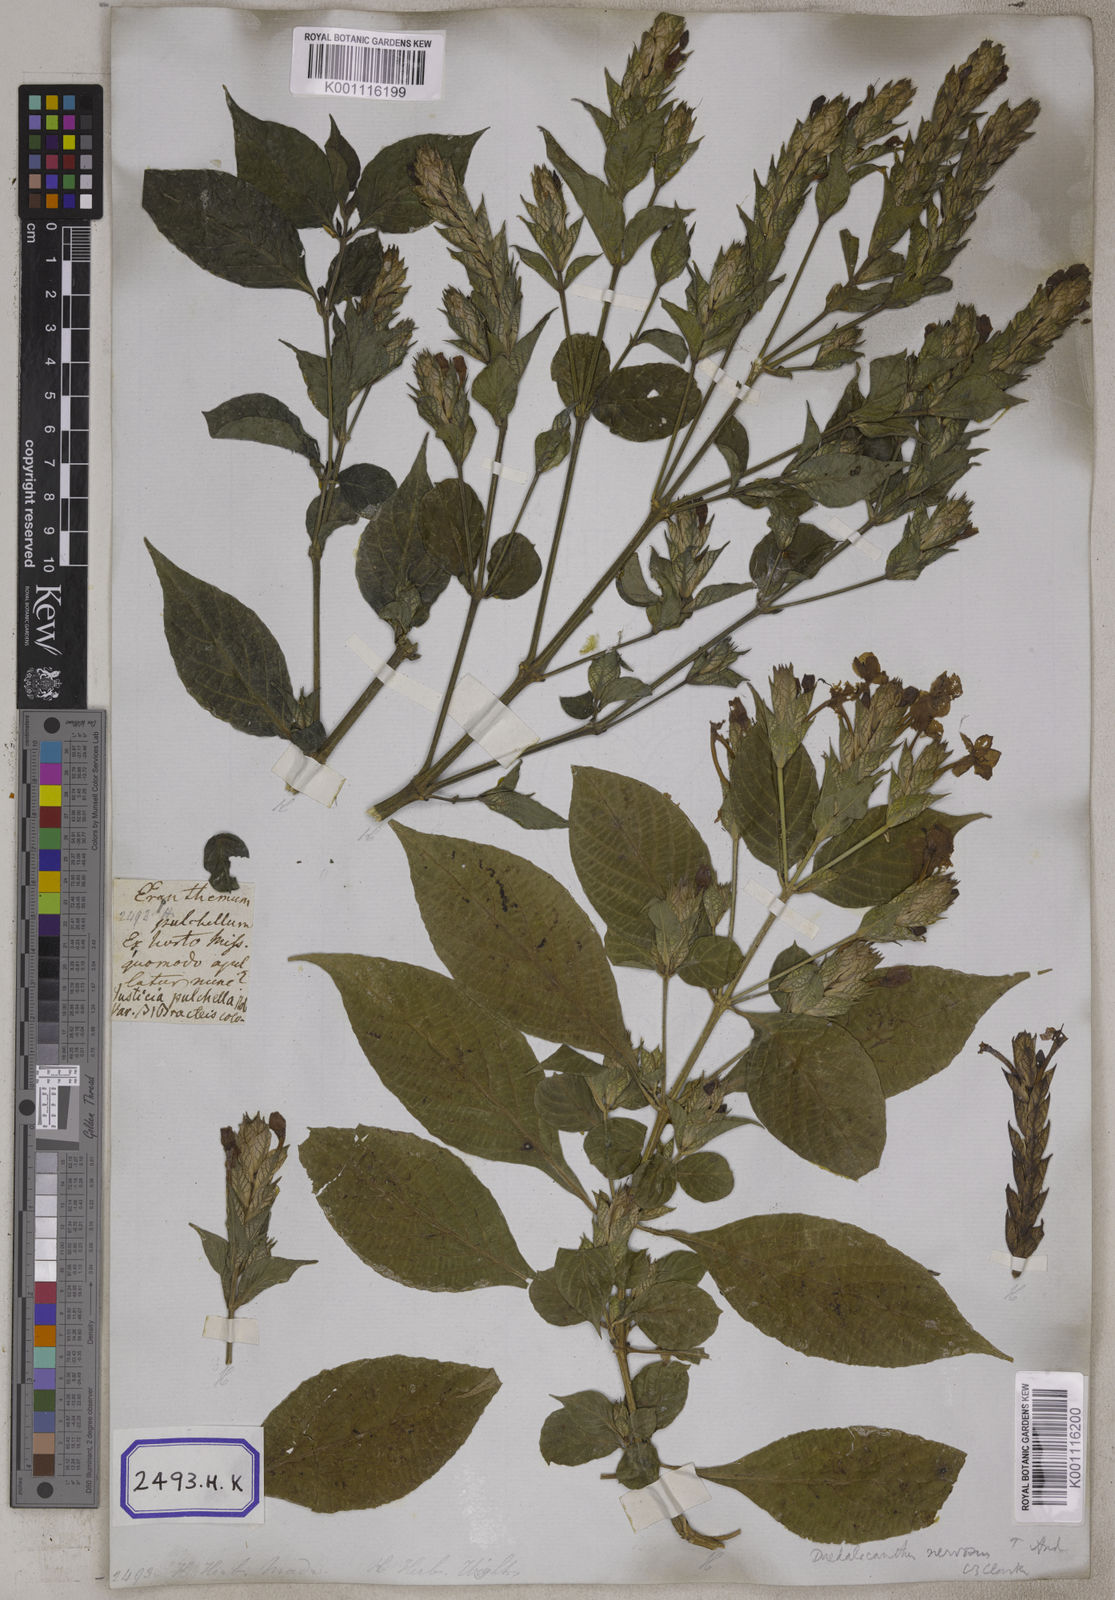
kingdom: Plantae
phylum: Tracheophyta
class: Magnoliopsida
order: Lamiales
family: Acanthaceae
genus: Eranthemum
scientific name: Eranthemum
